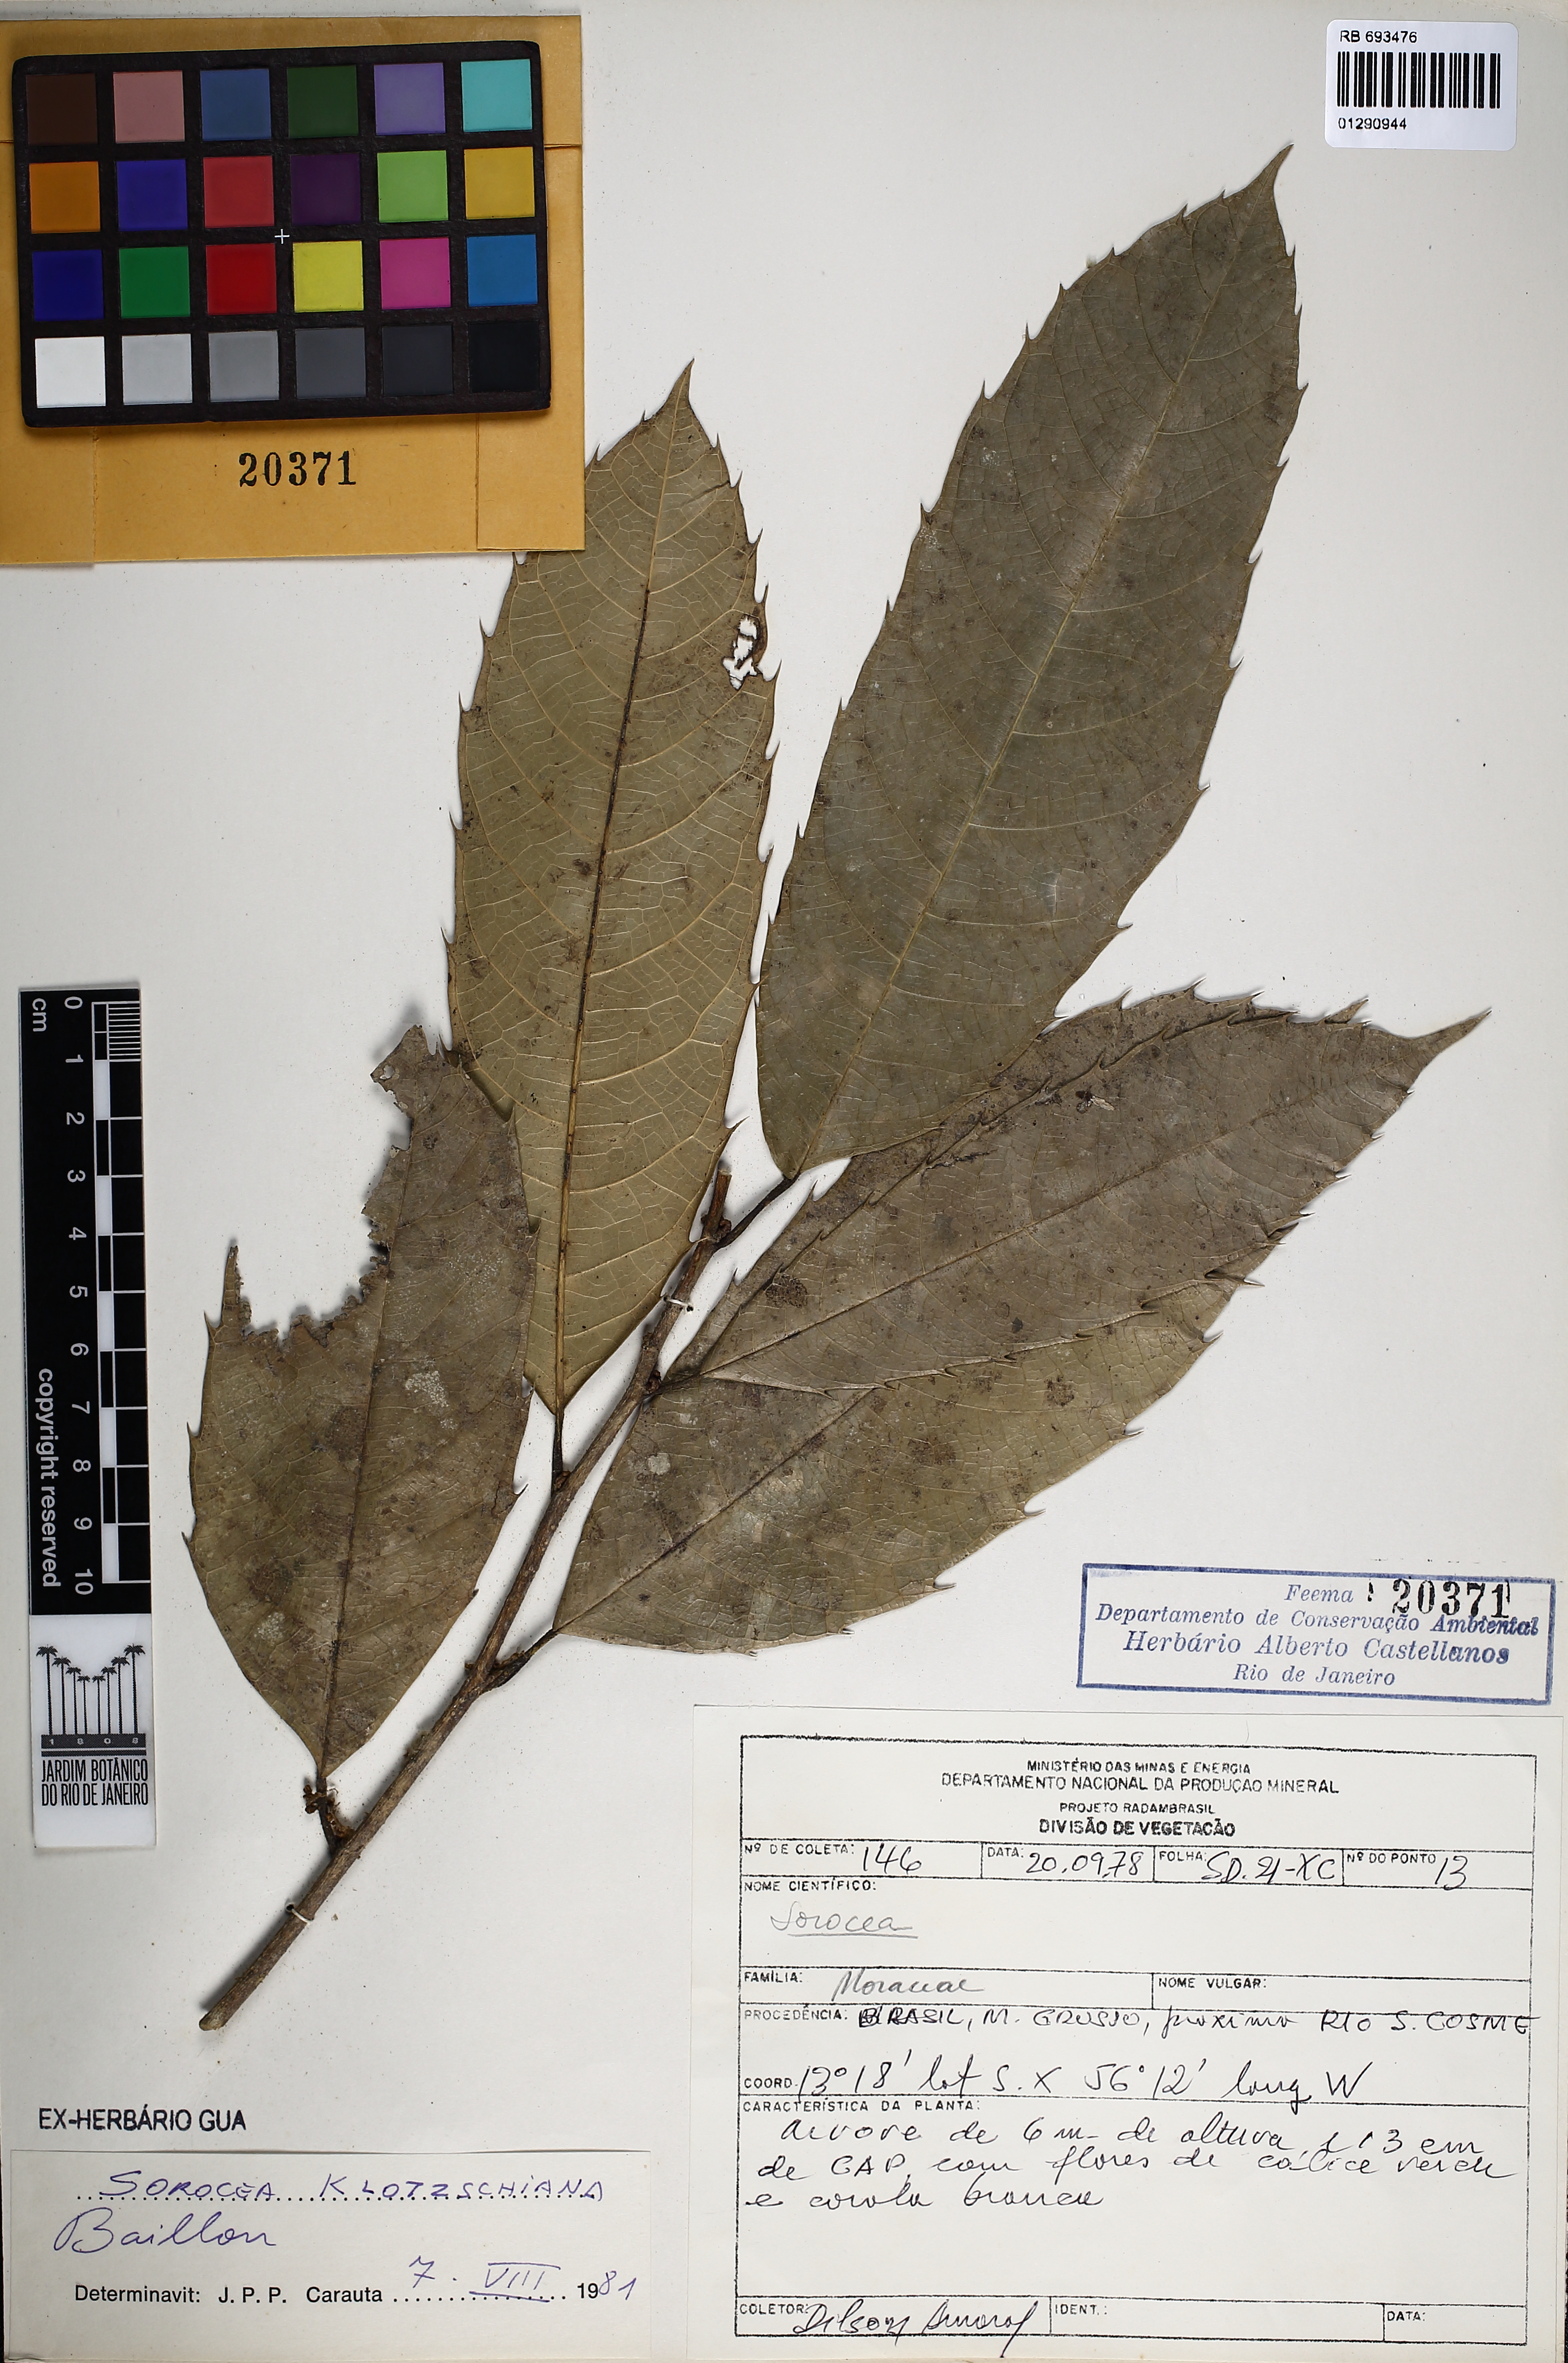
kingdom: Plantae
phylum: Tracheophyta
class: Magnoliopsida
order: Rosales
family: Moraceae
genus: Sorocea
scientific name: Sorocea guilleminiana
